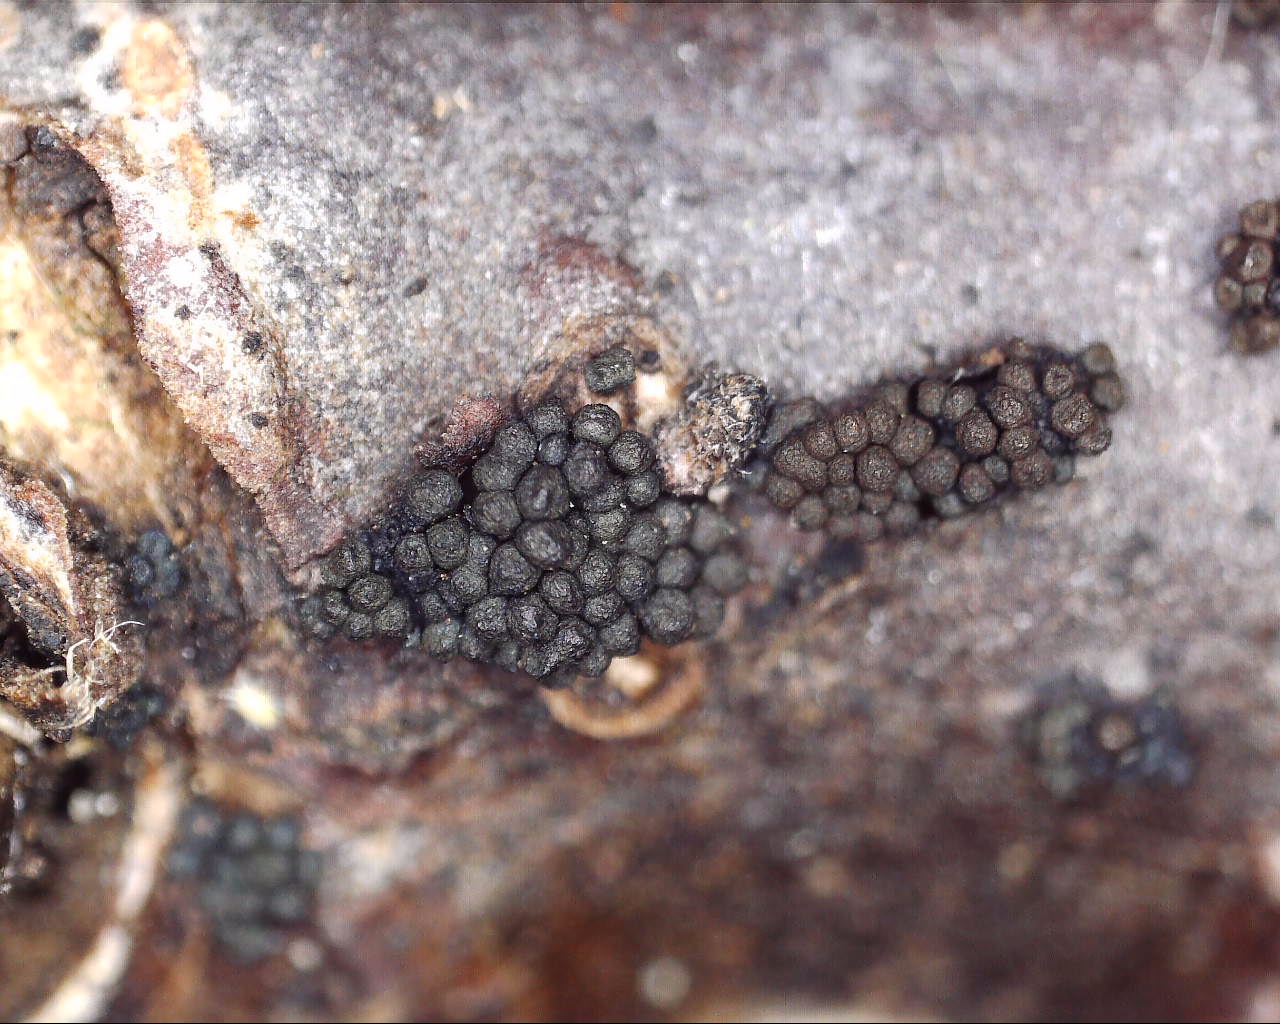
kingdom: Fungi
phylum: Ascomycota
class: Sordariomycetes
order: Hypocreales
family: Nectriaceae
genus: Gibberella
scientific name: Gibberella
